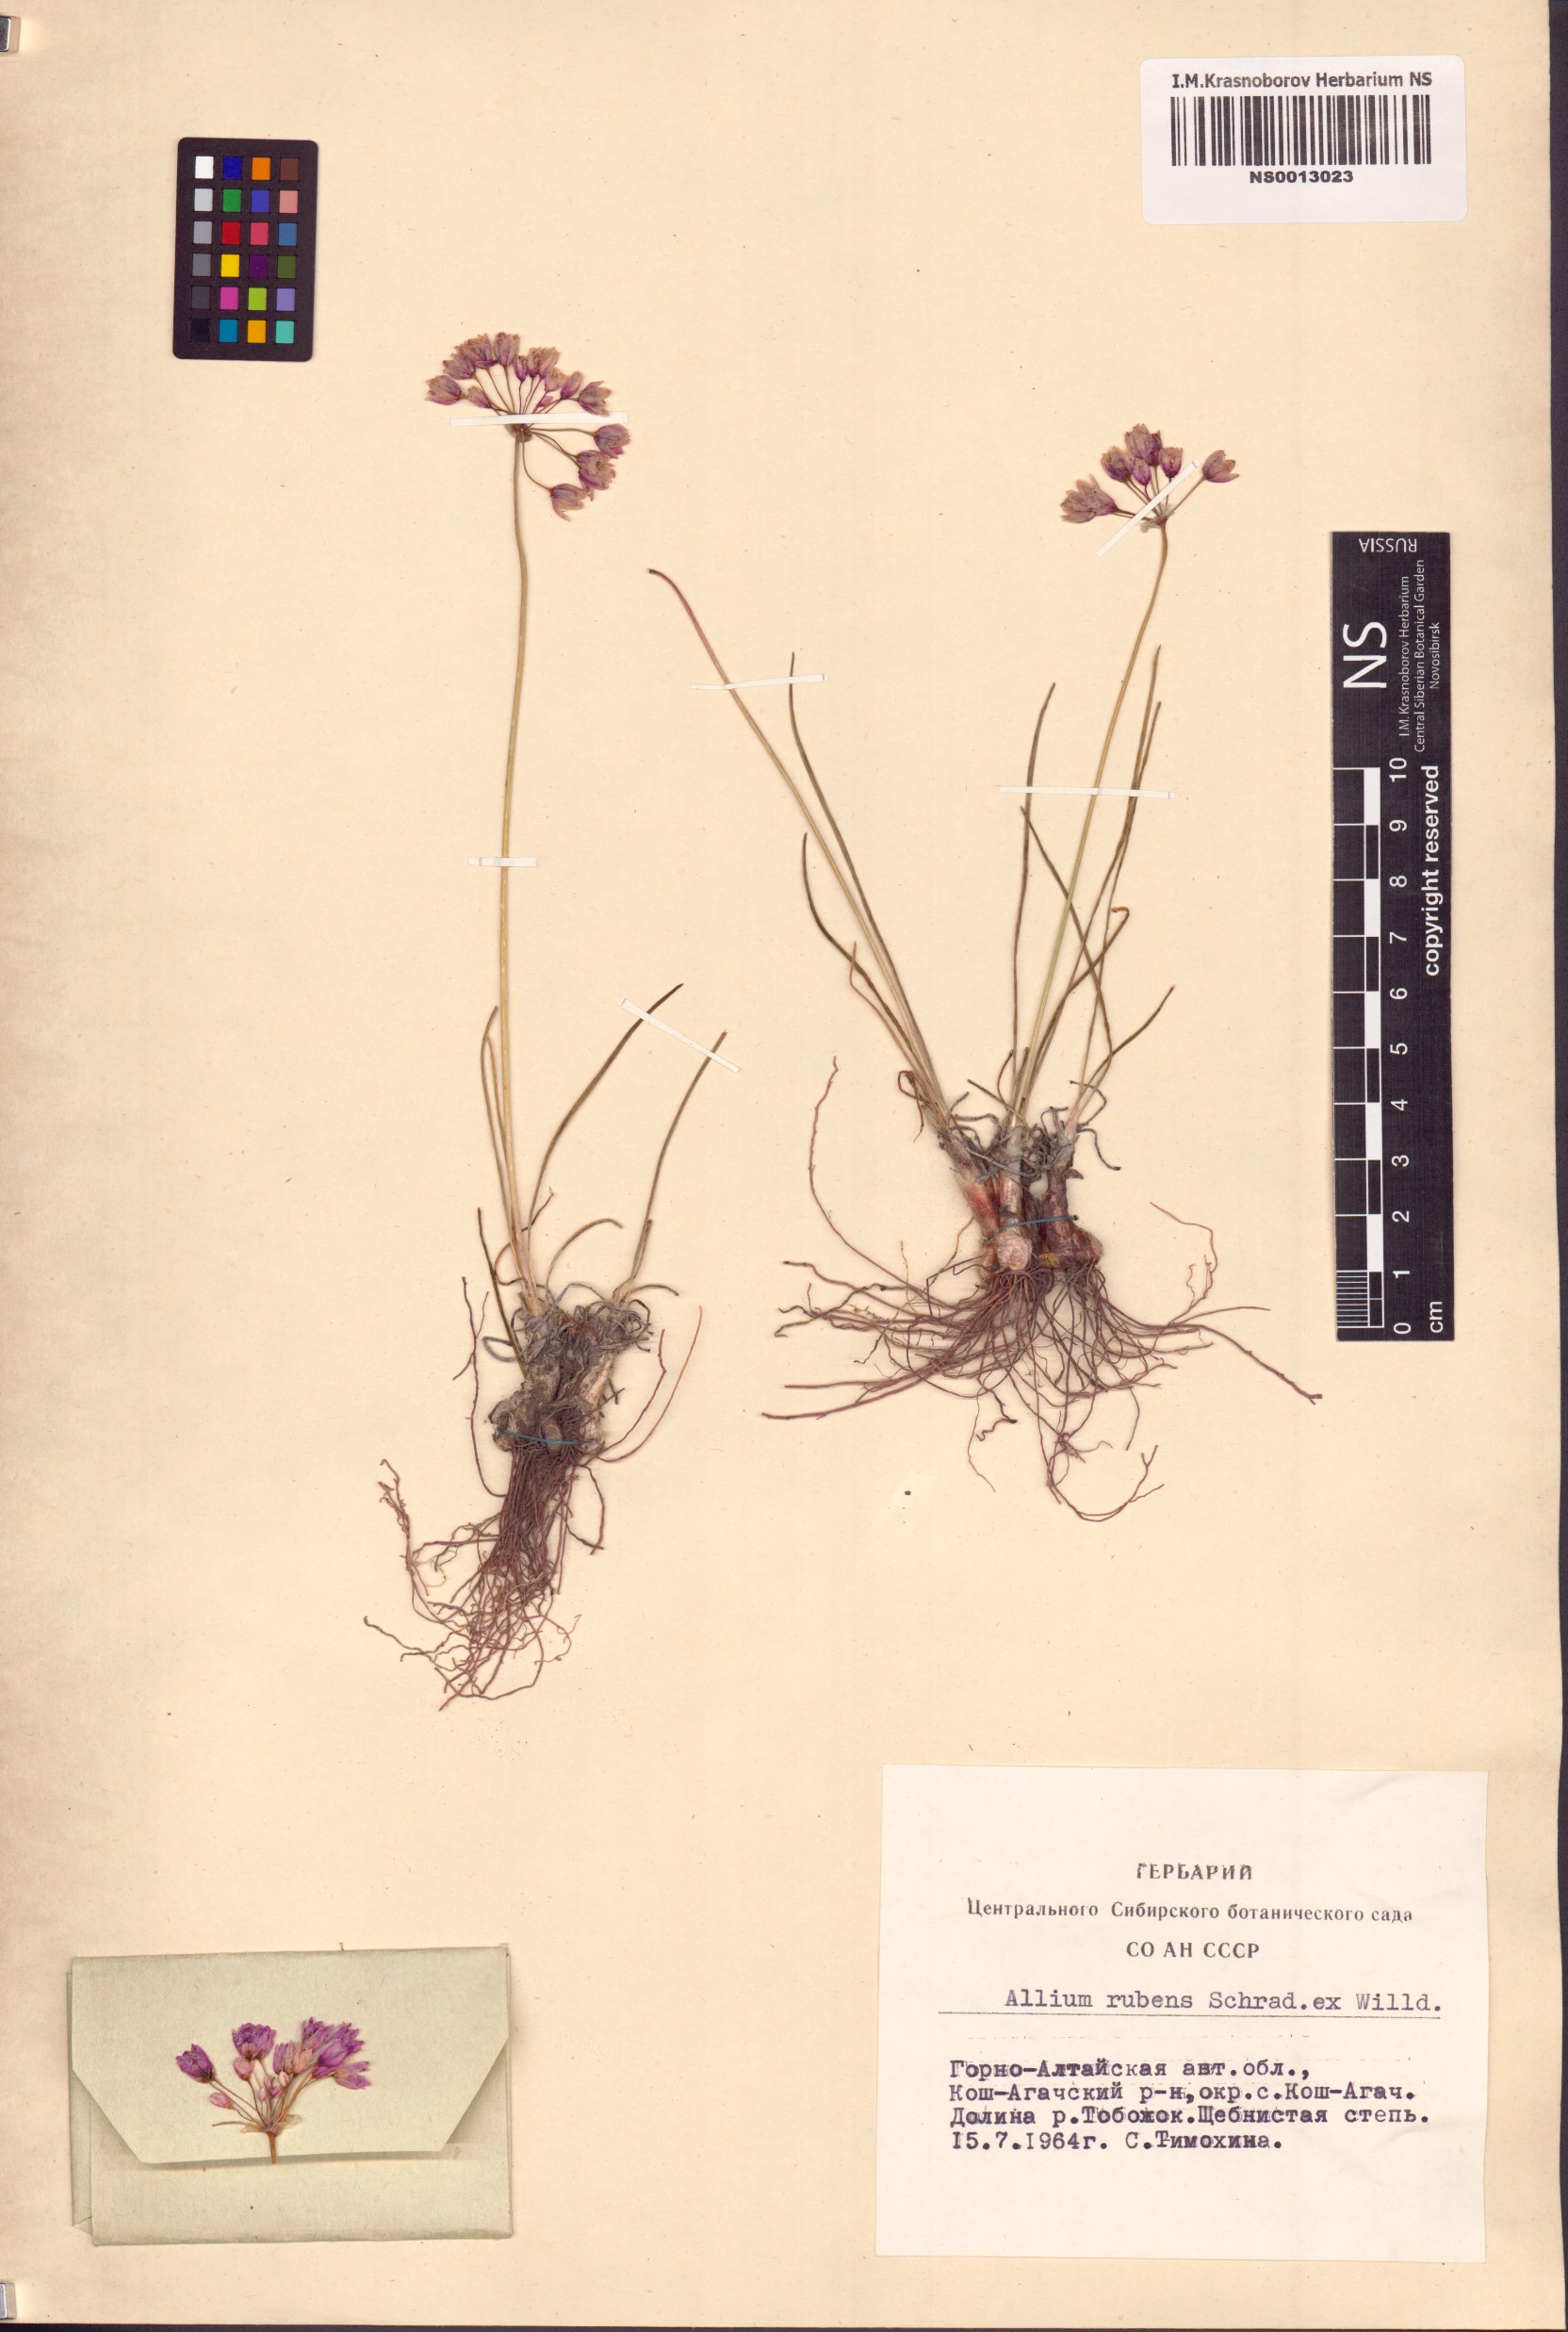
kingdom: Plantae
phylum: Tracheophyta
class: Liliopsida
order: Asparagales
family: Amaryllidaceae
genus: Allium
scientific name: Allium rubens
